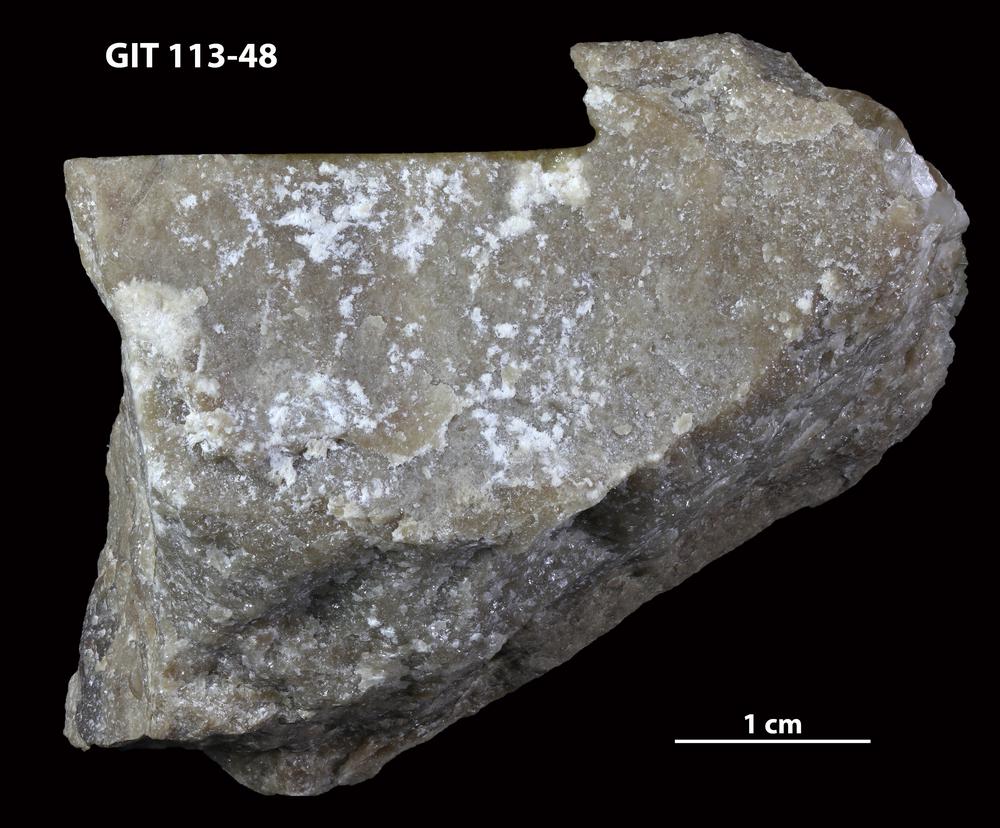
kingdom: Animalia
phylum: Porifera
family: Ecclimadictyidae
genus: Ecclimadictyon
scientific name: Ecclimadictyon porkuni
